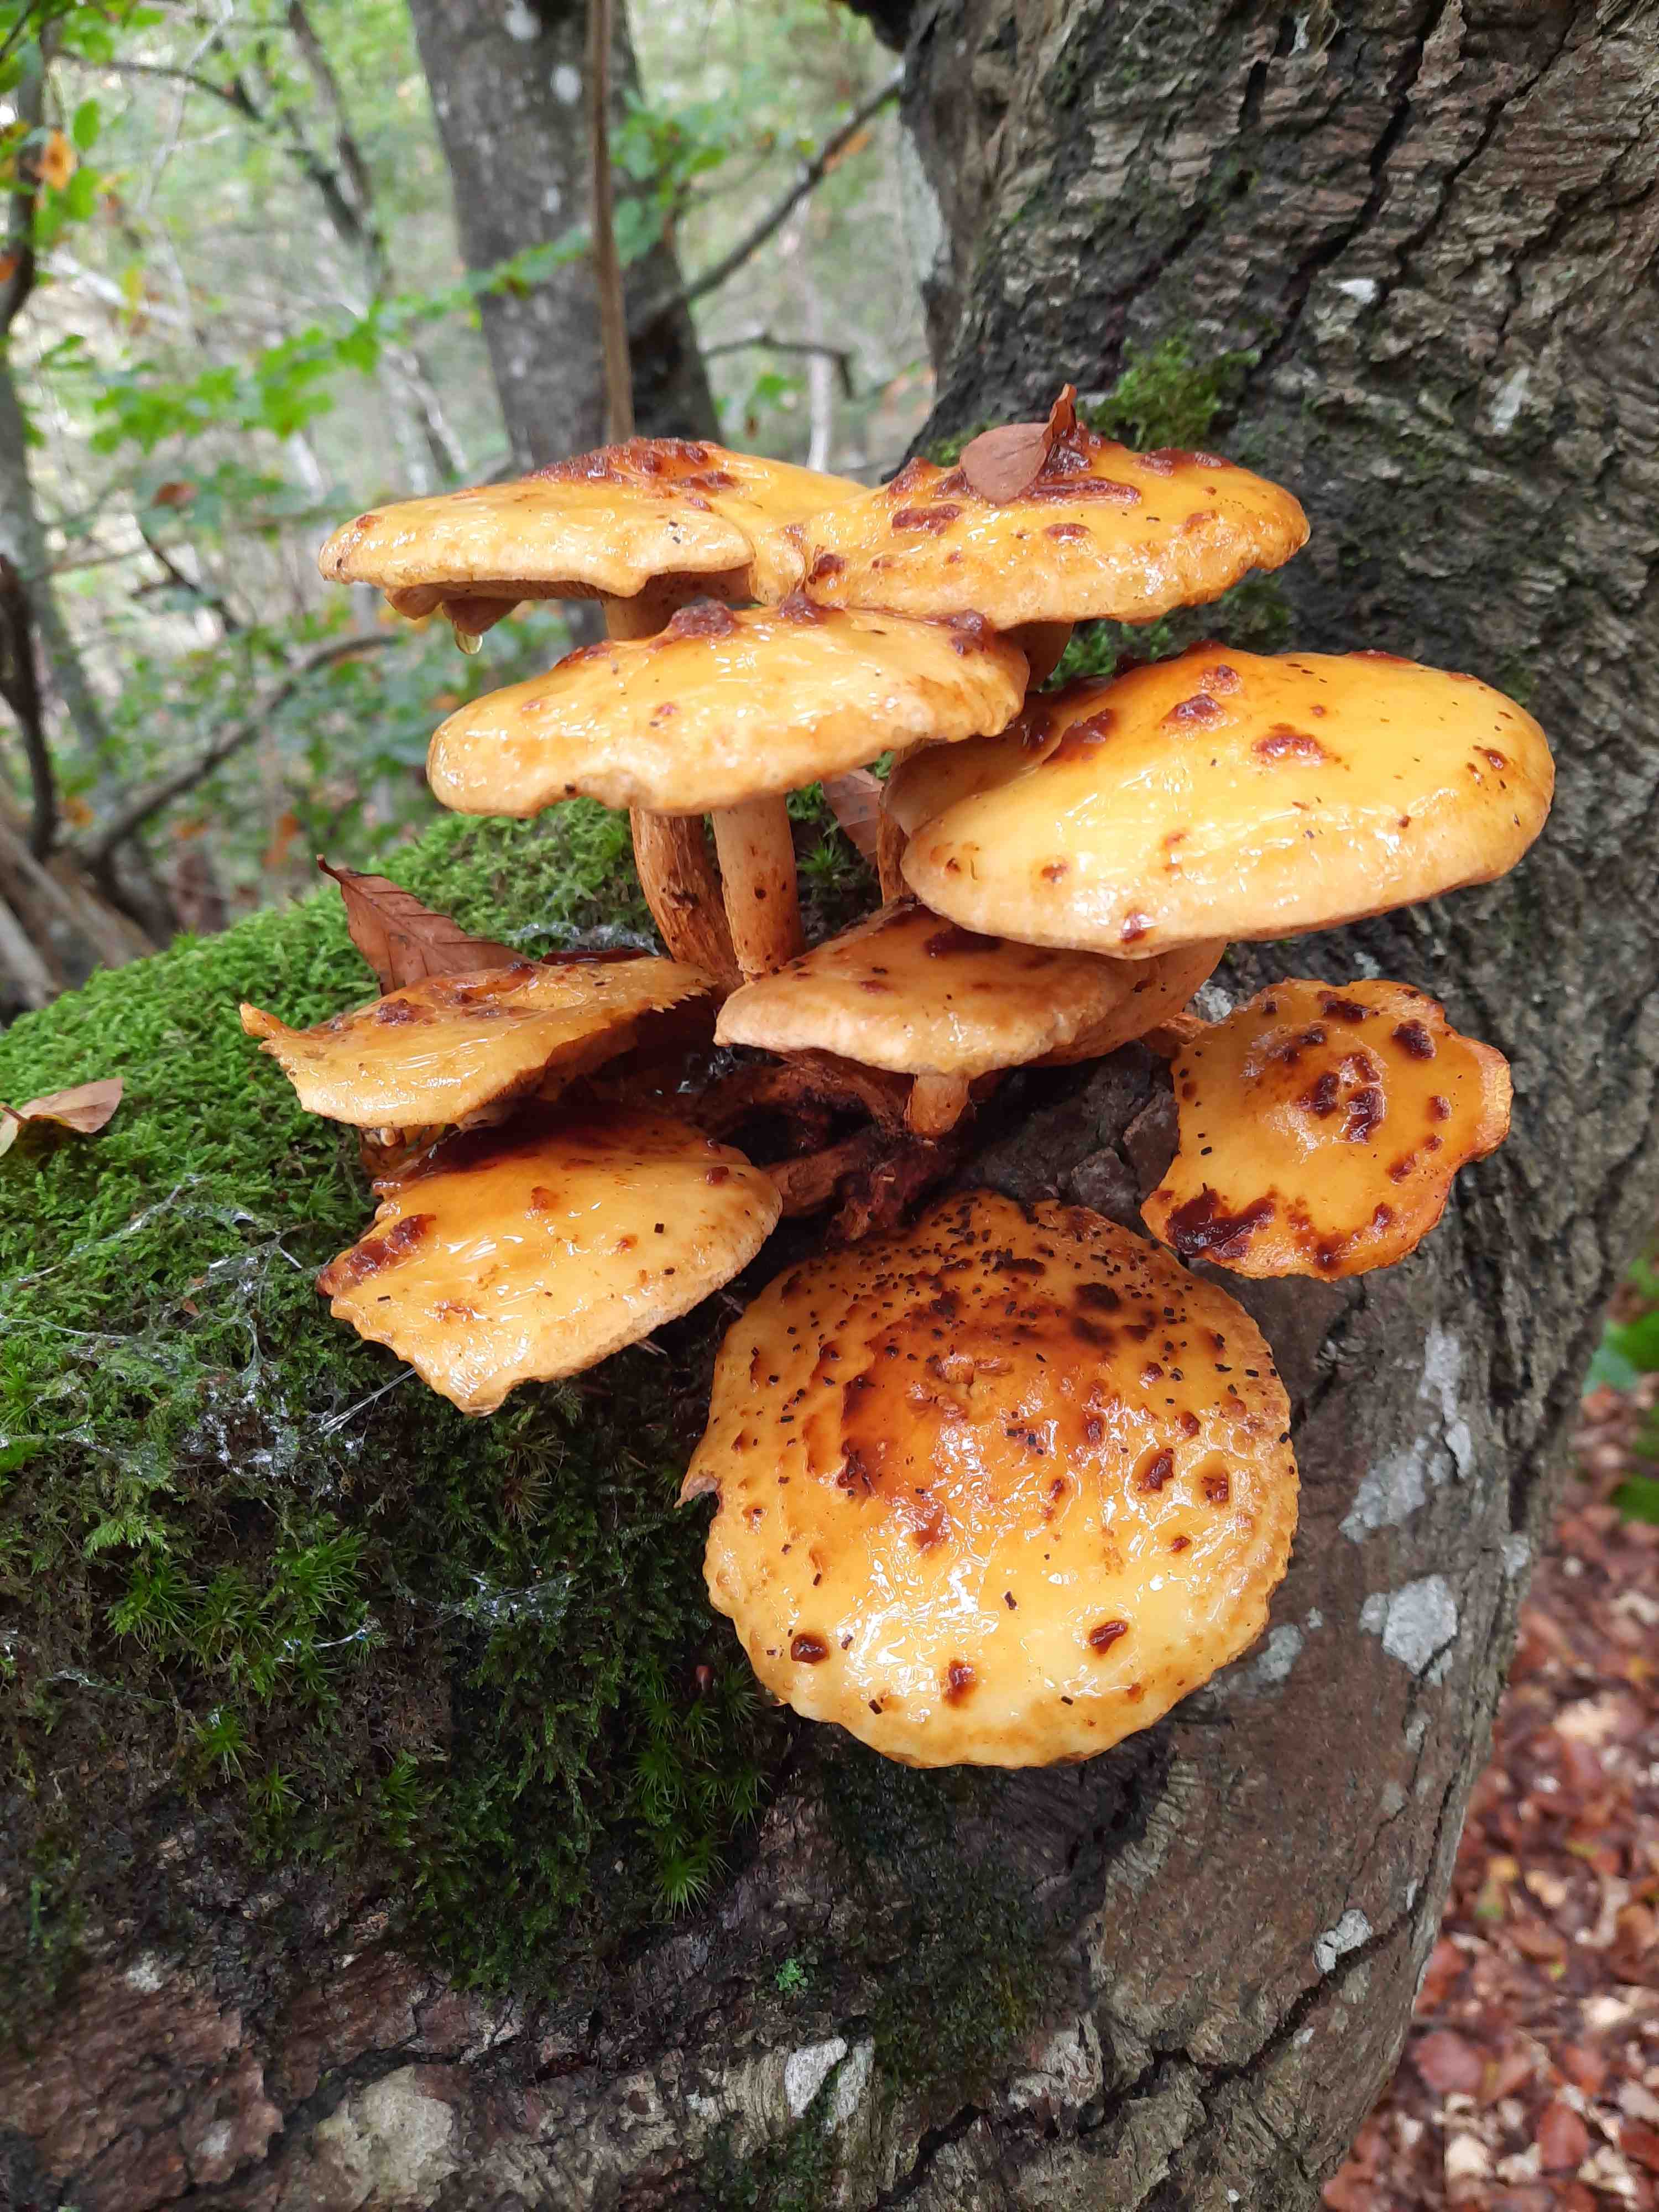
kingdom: Fungi
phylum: Basidiomycota
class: Agaricomycetes
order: Agaricales
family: Strophariaceae
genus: Pholiota
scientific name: Pholiota adiposa
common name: højtsiddende skælhat
